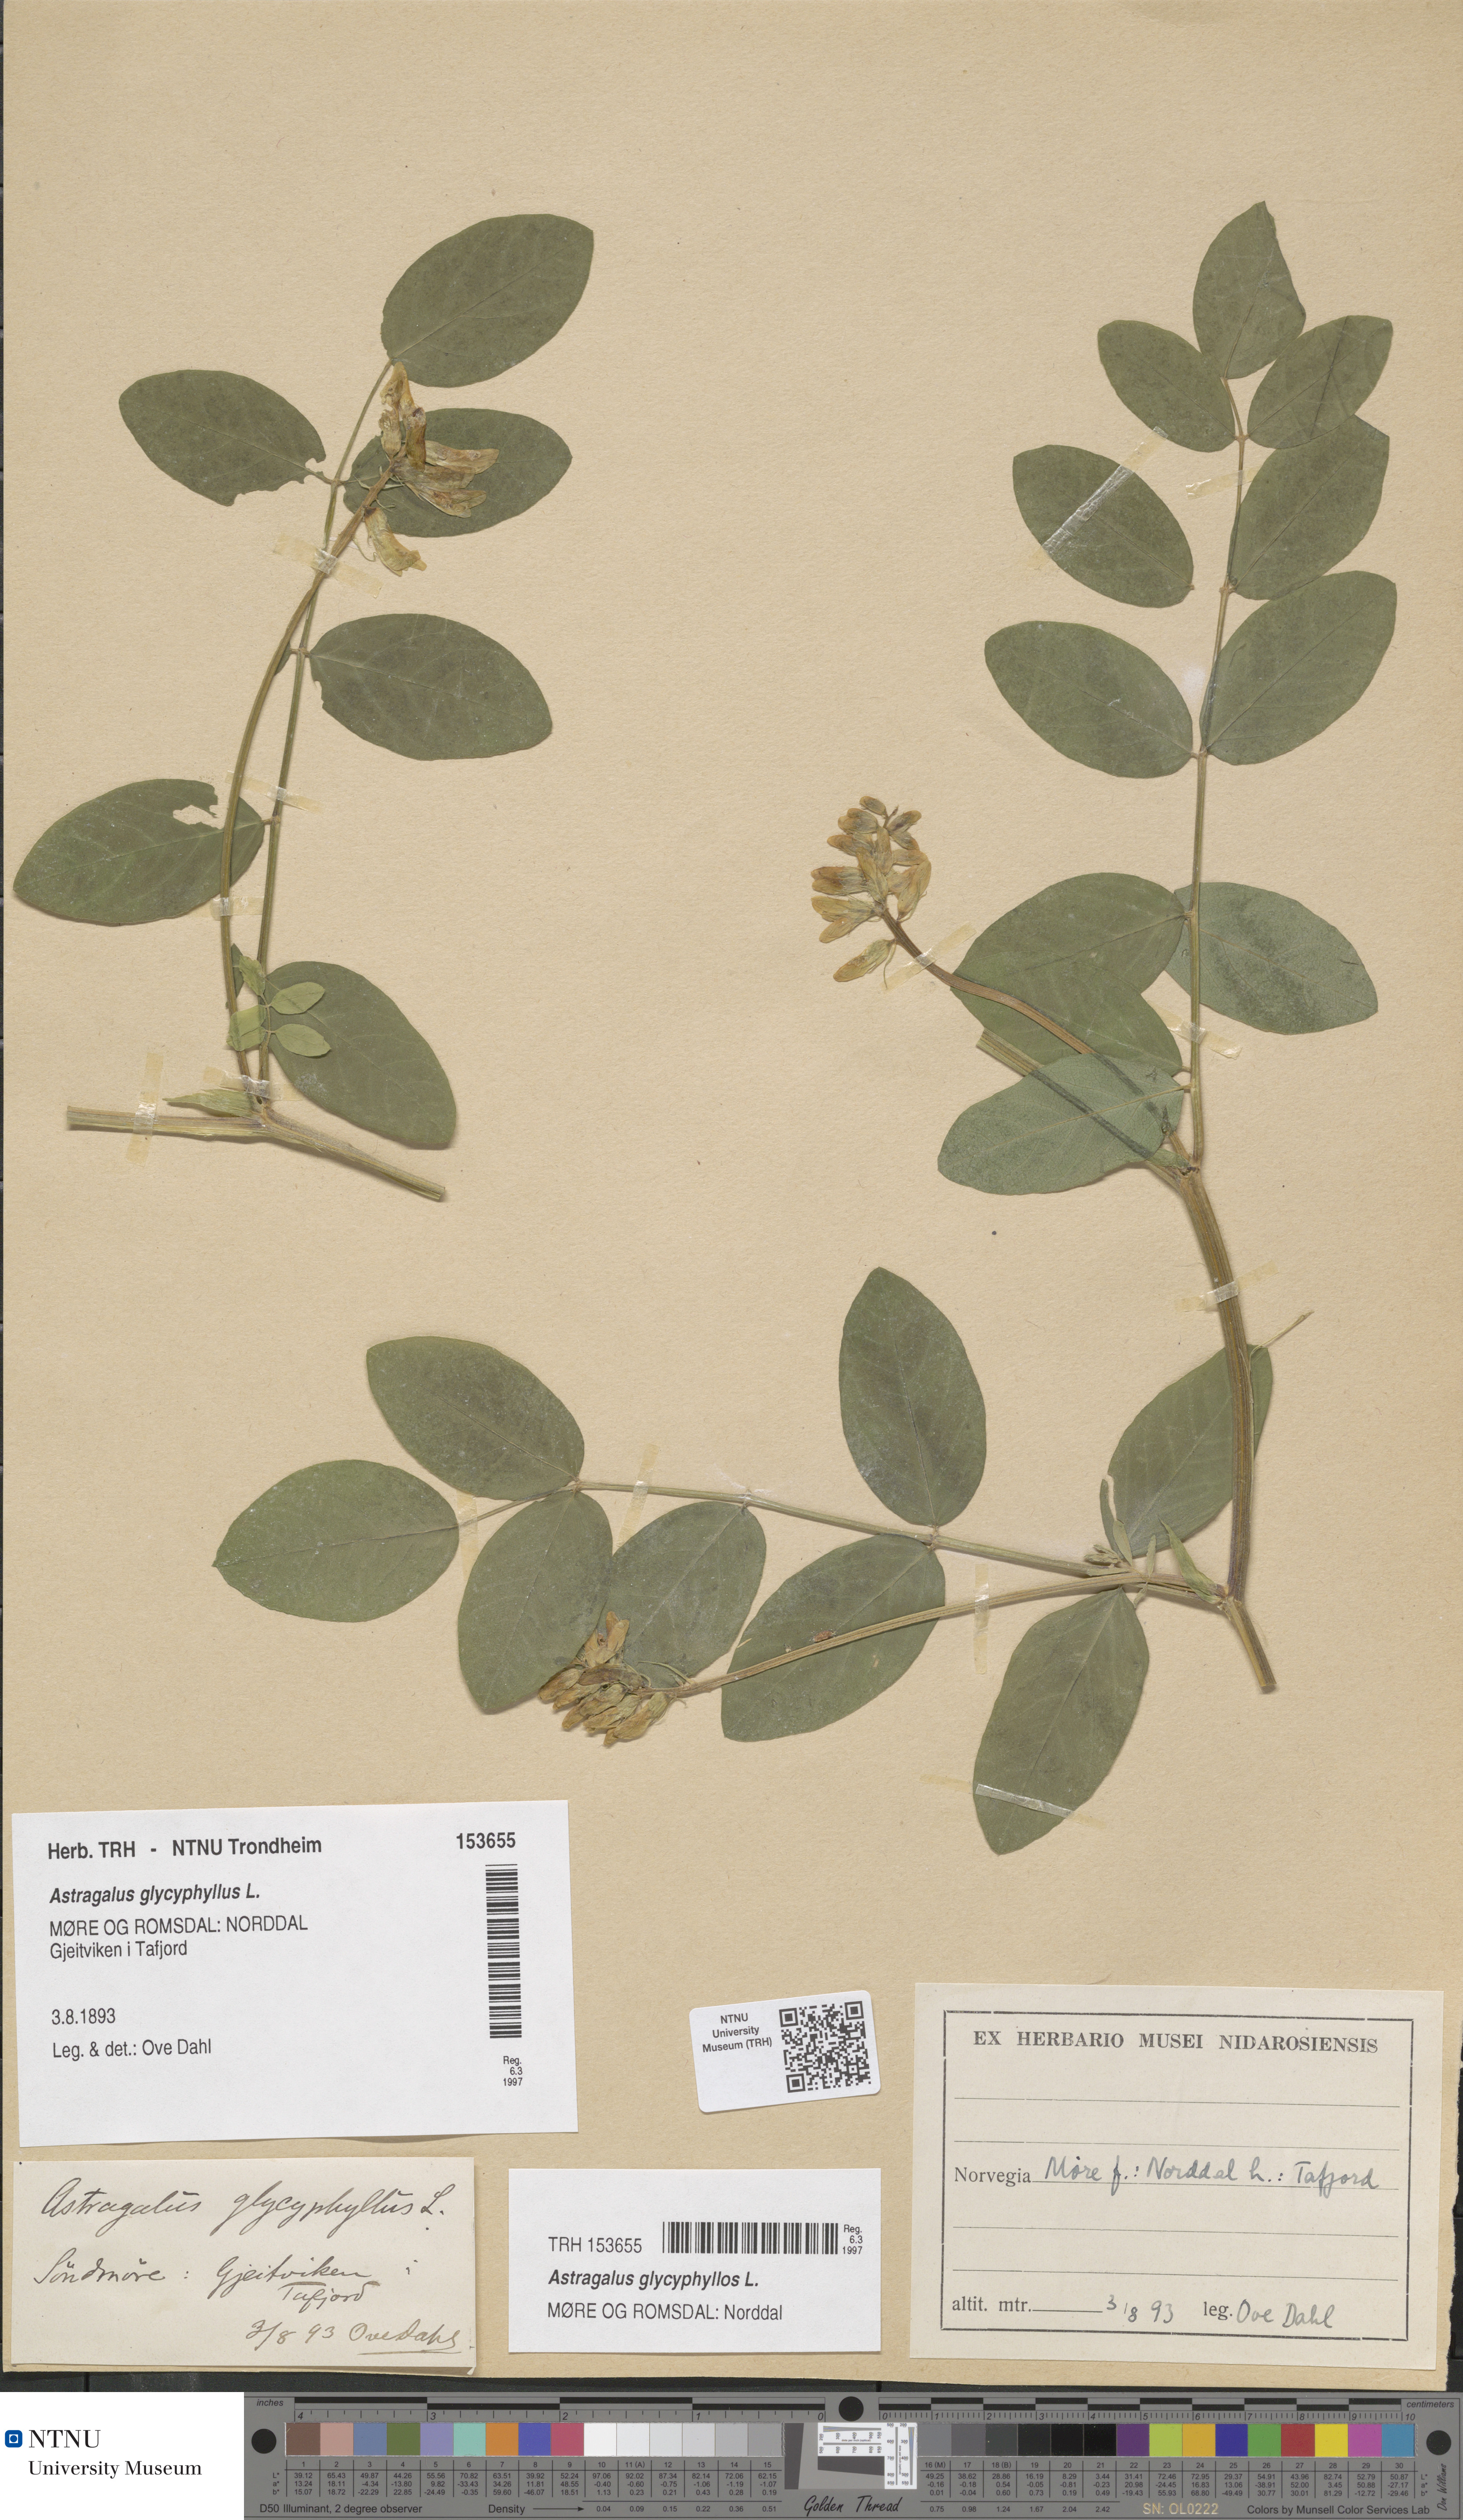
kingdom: Plantae
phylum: Tracheophyta
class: Magnoliopsida
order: Fabales
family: Fabaceae
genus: Astragalus
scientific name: Astragalus glycyphyllos
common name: Wild liquorice
